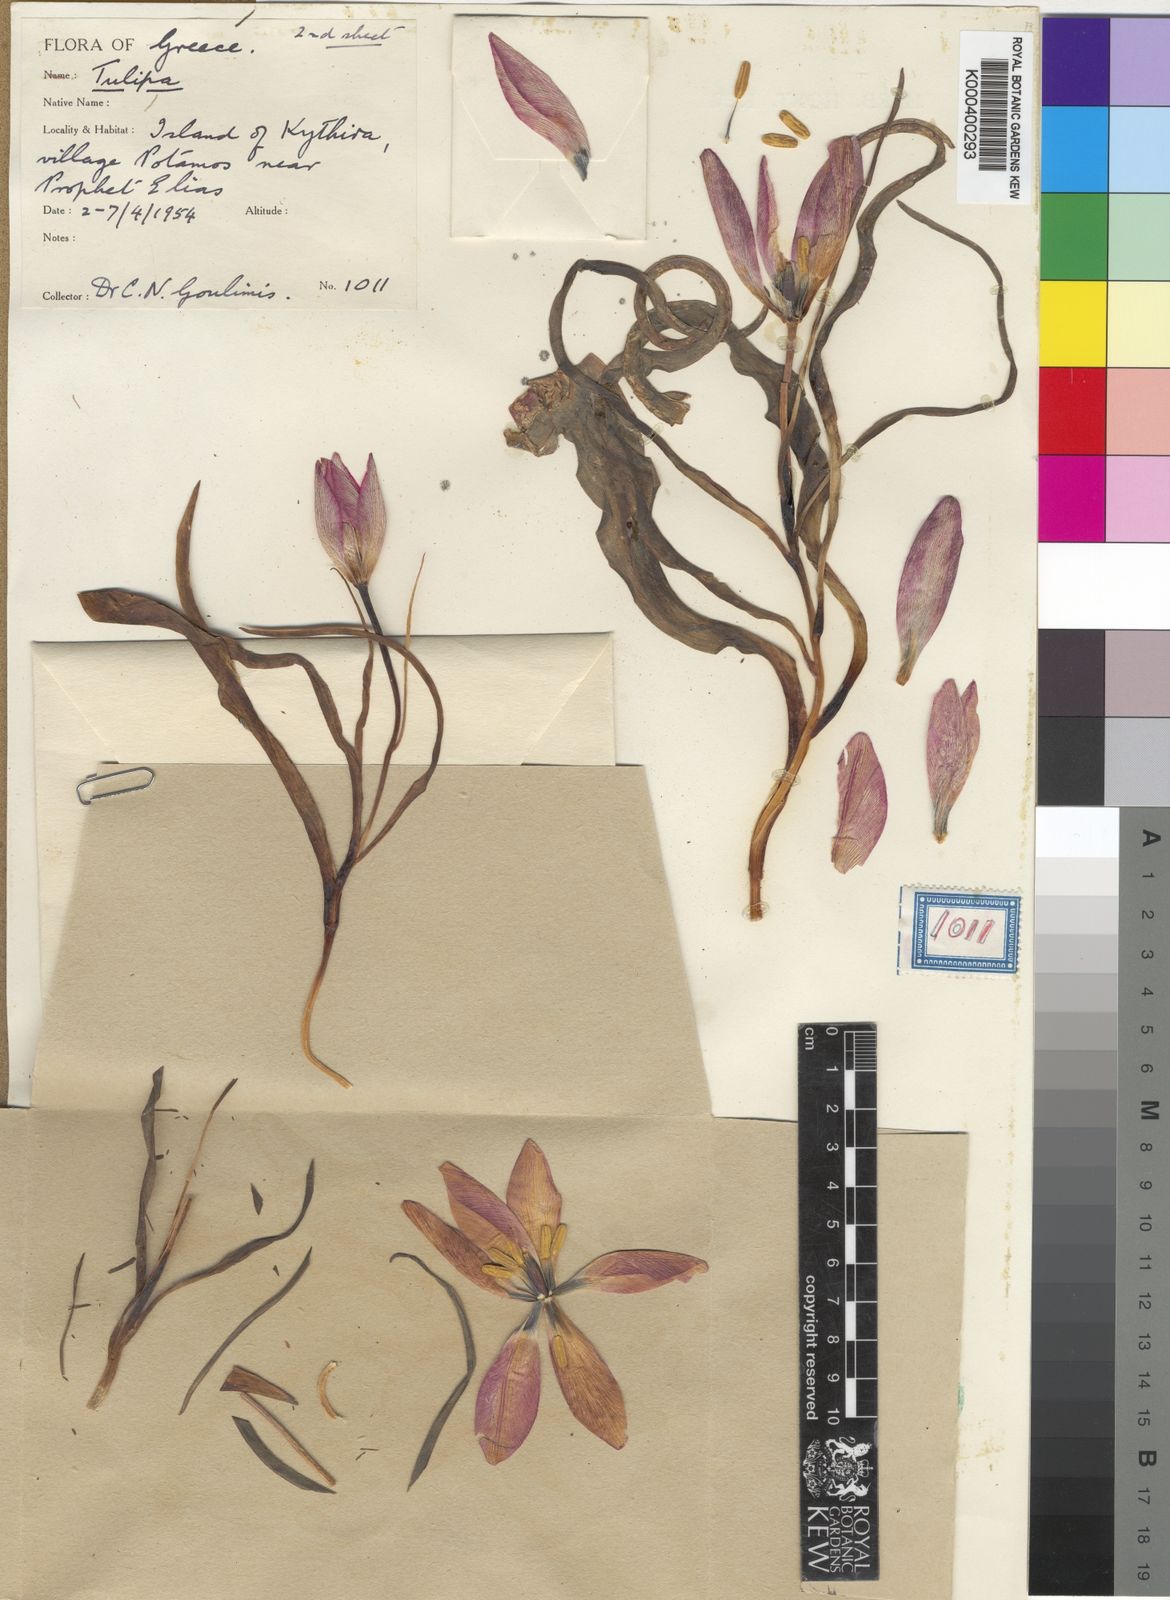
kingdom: Plantae
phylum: Tracheophyta
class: Liliopsida
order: Liliales
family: Liliaceae
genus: Tulipa
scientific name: Tulipa orphanidea
